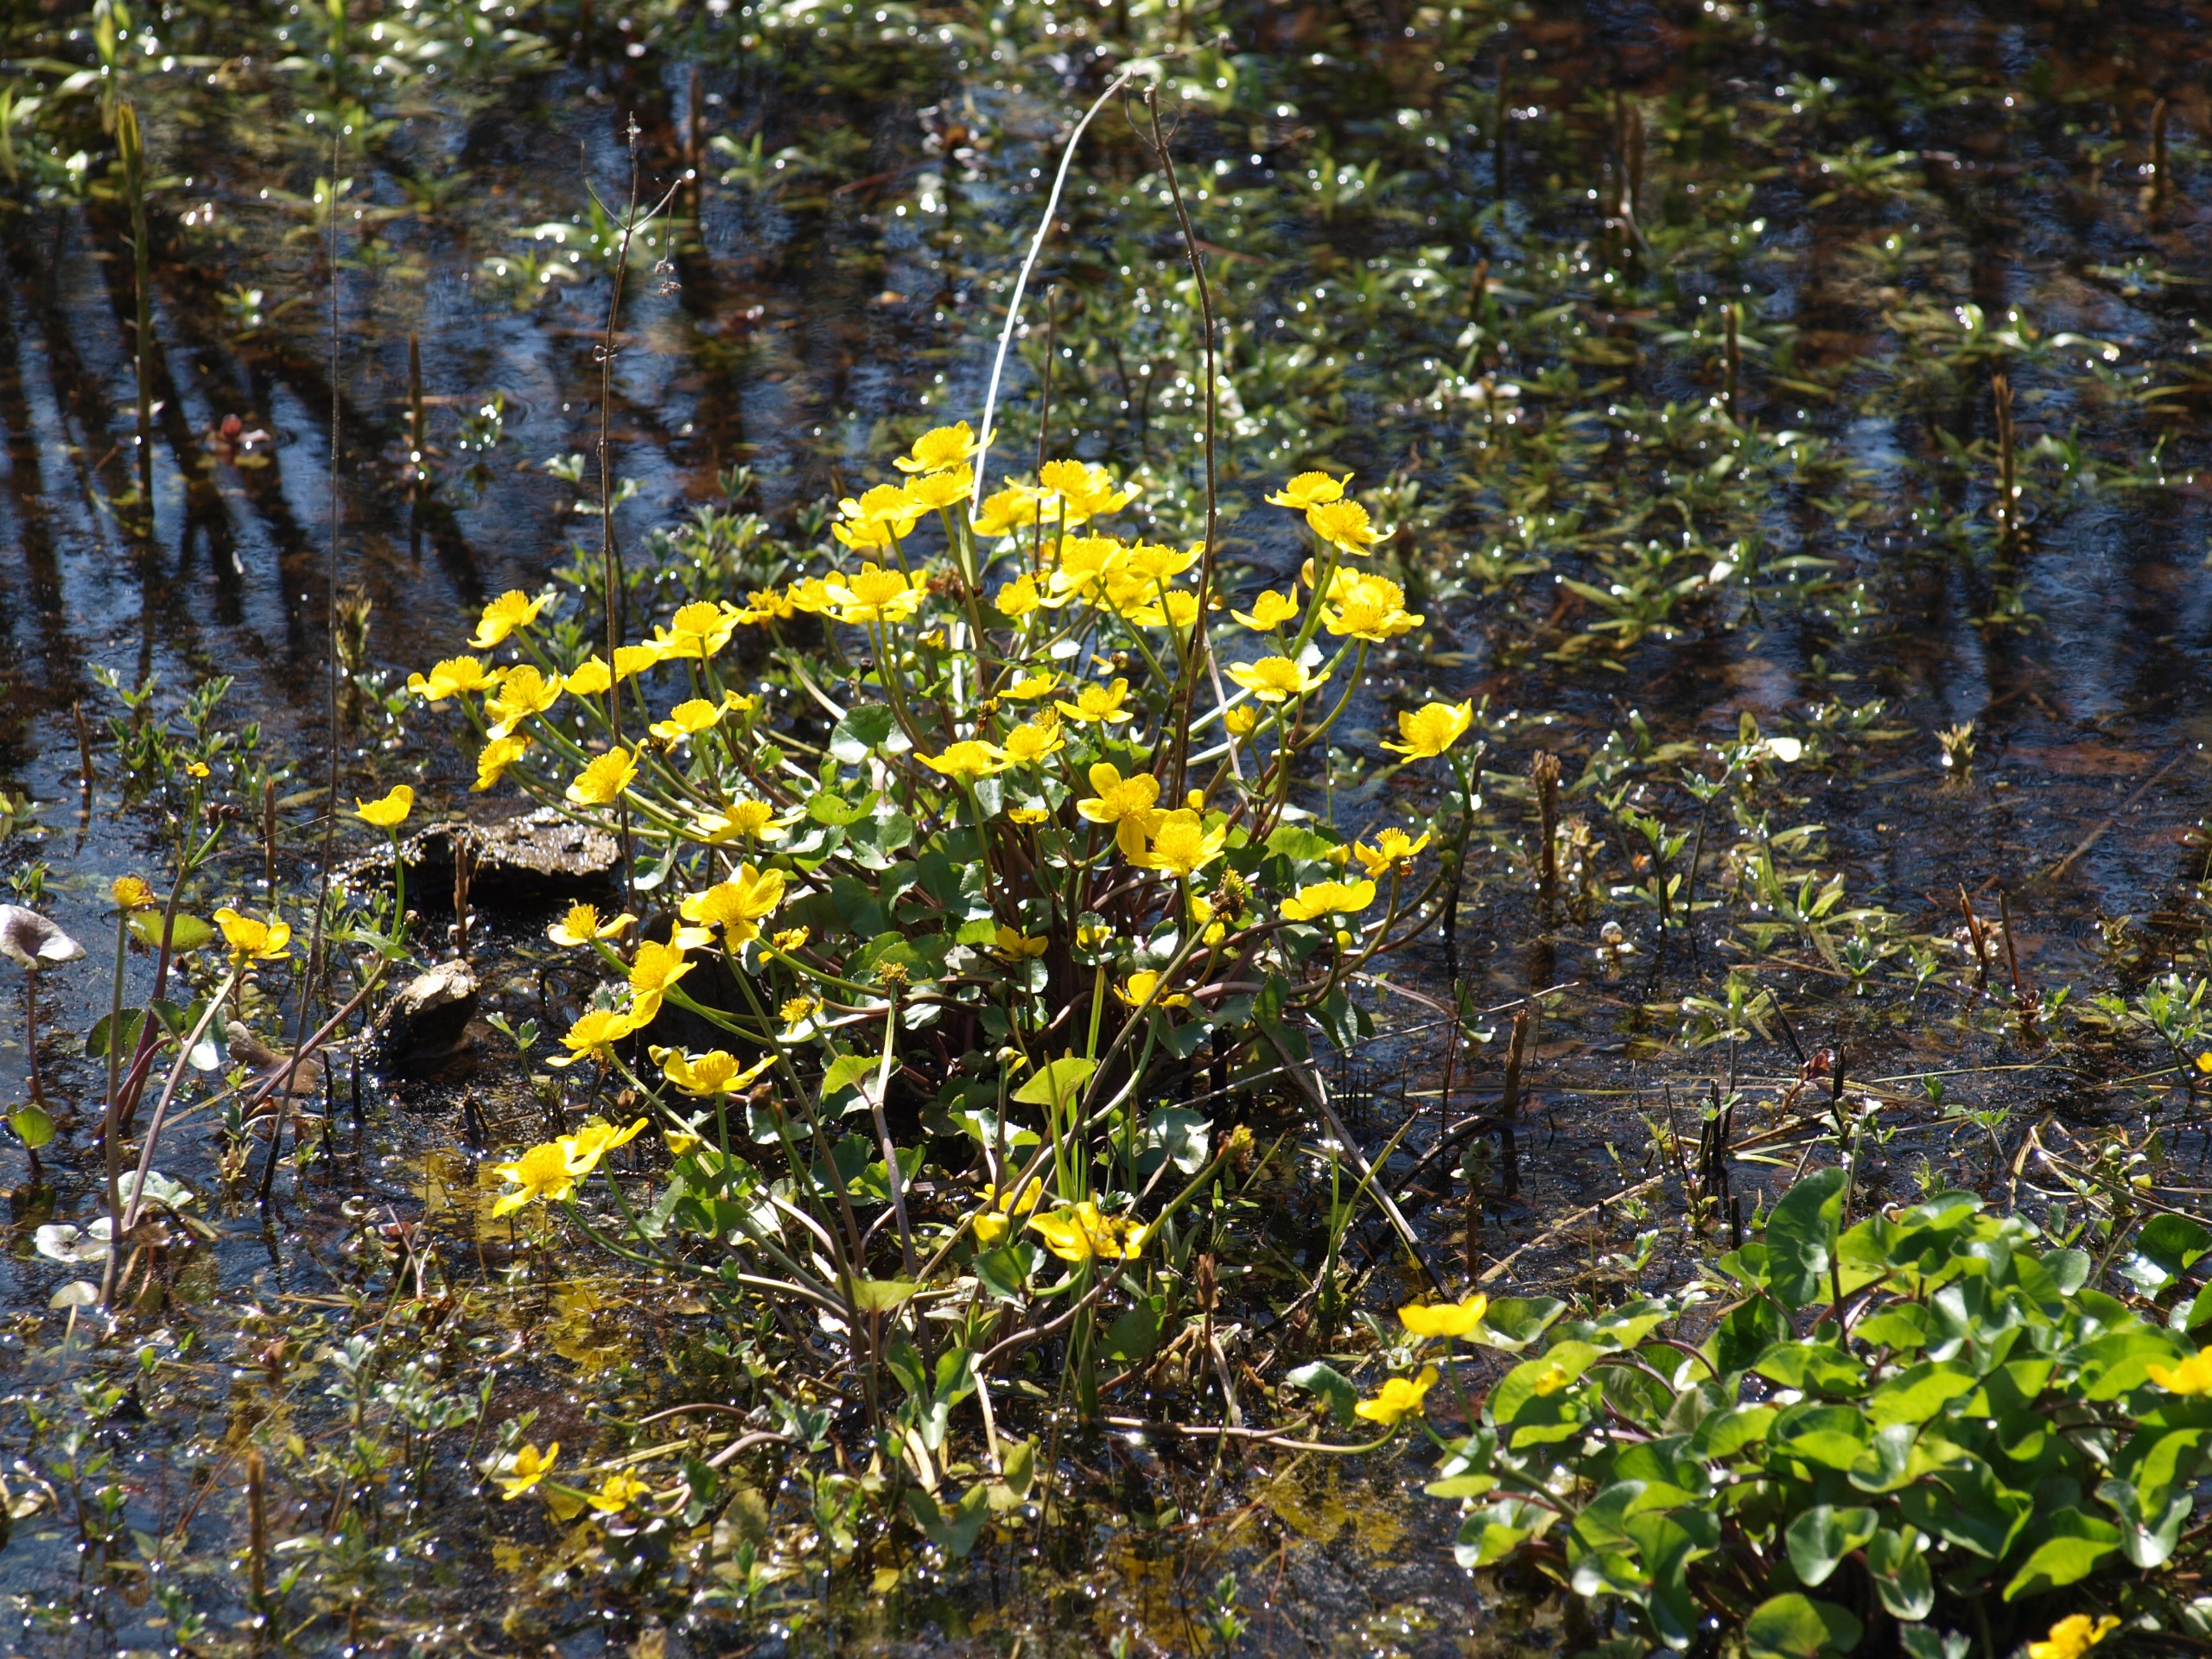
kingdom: Plantae
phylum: Tracheophyta
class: Magnoliopsida
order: Ranunculales
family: Ranunculaceae
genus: Caltha
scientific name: Caltha palustris
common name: Eng-kabbeleje
